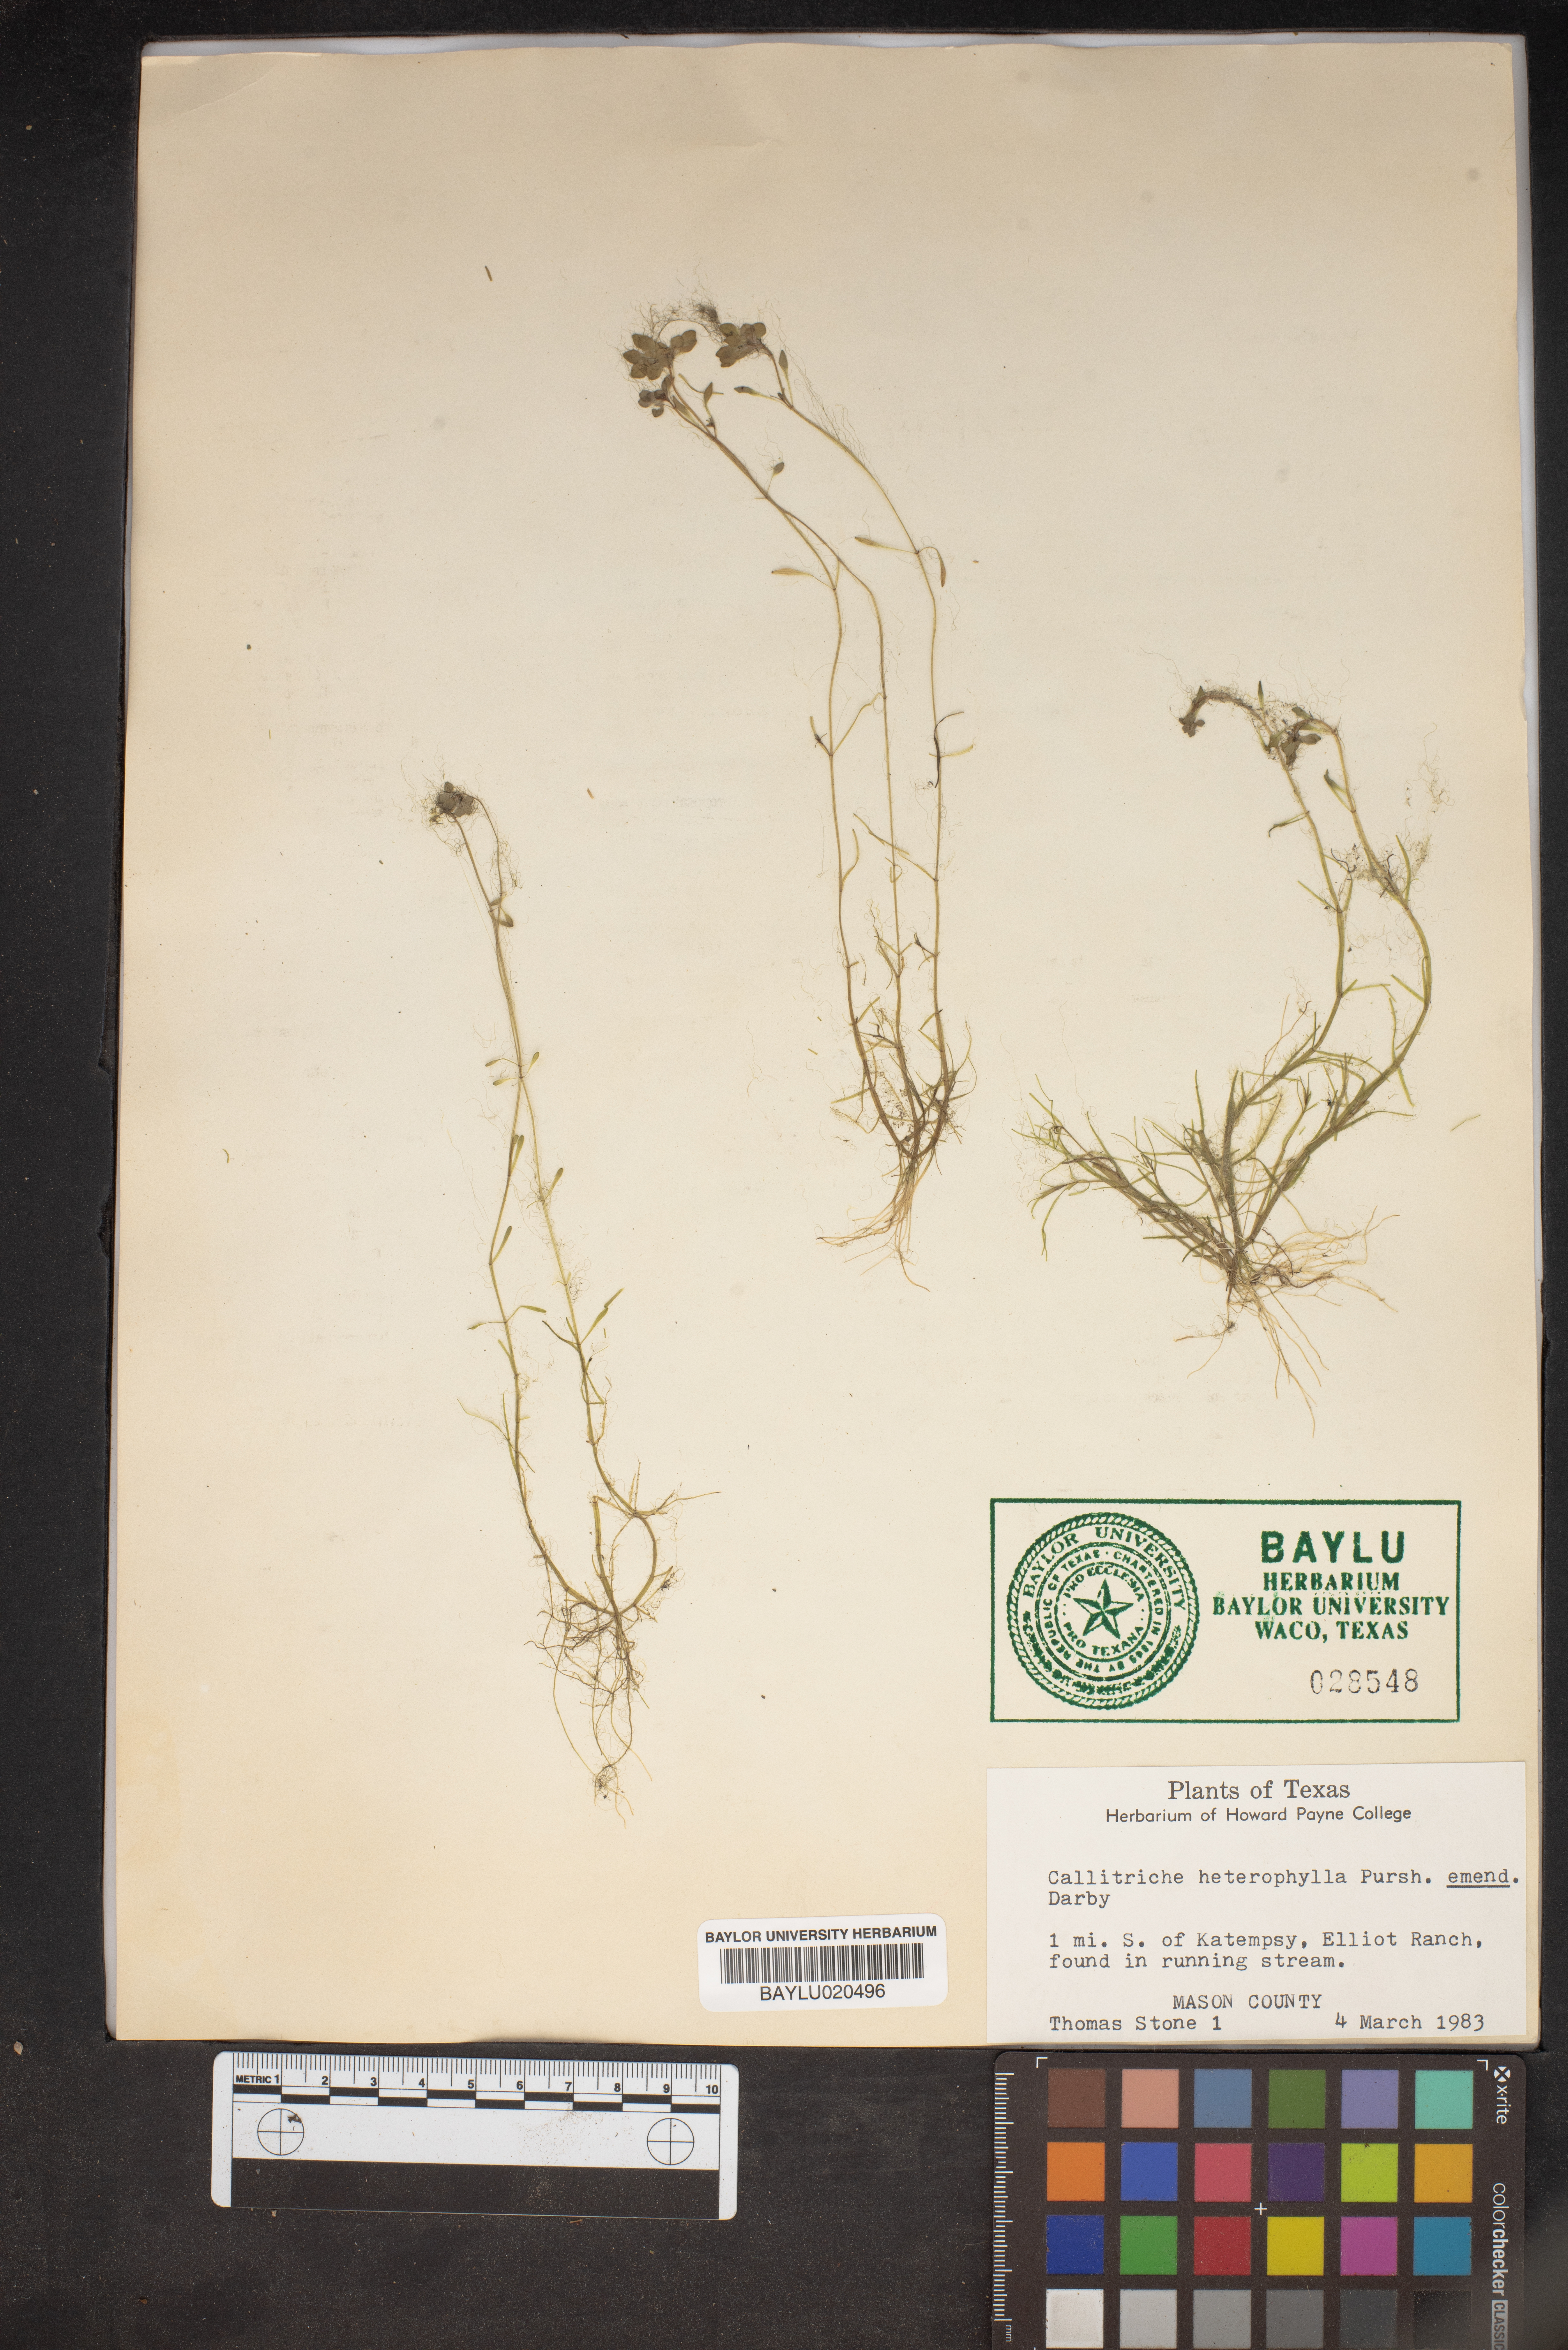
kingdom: Plantae
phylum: Tracheophyta
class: Magnoliopsida
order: Lamiales
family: Plantaginaceae
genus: Callitriche
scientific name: Callitriche heterophylla
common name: Two-headed water-starwort
